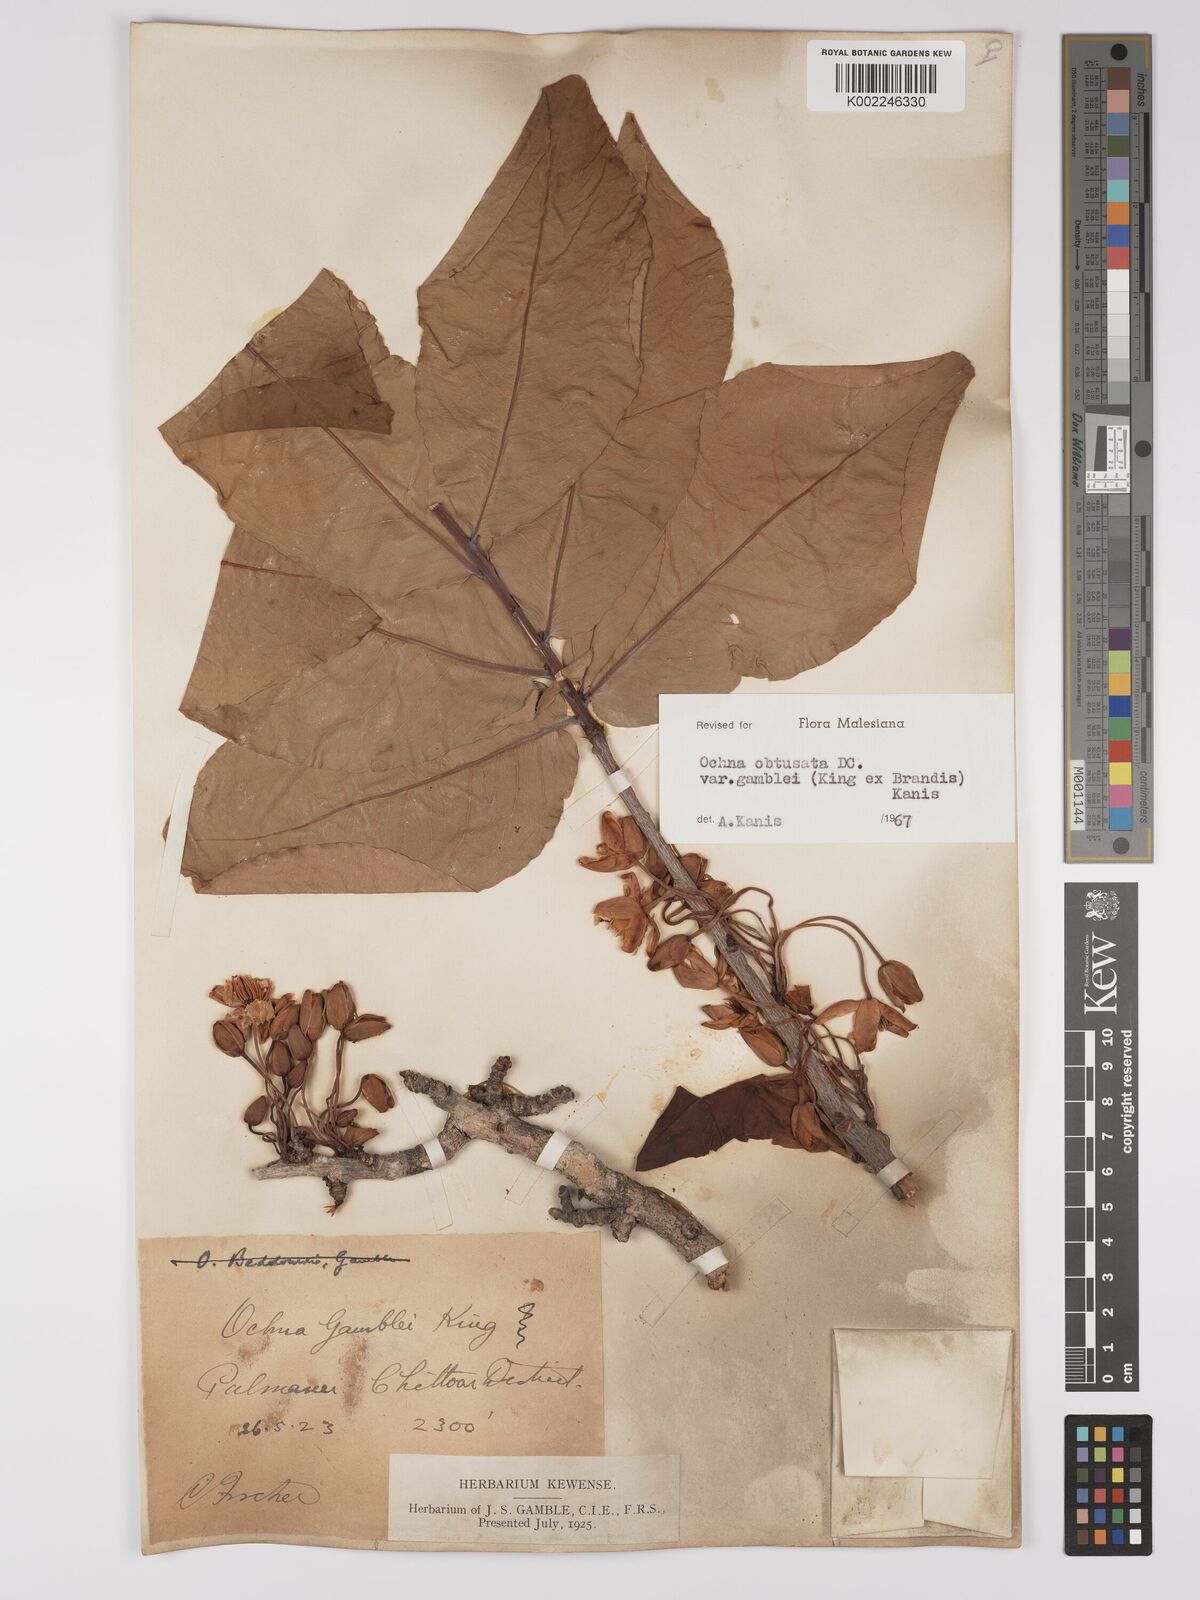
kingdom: Plantae
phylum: Tracheophyta
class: Magnoliopsida
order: Malpighiales
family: Ochnaceae
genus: Ochna
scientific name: Ochna obtusata
